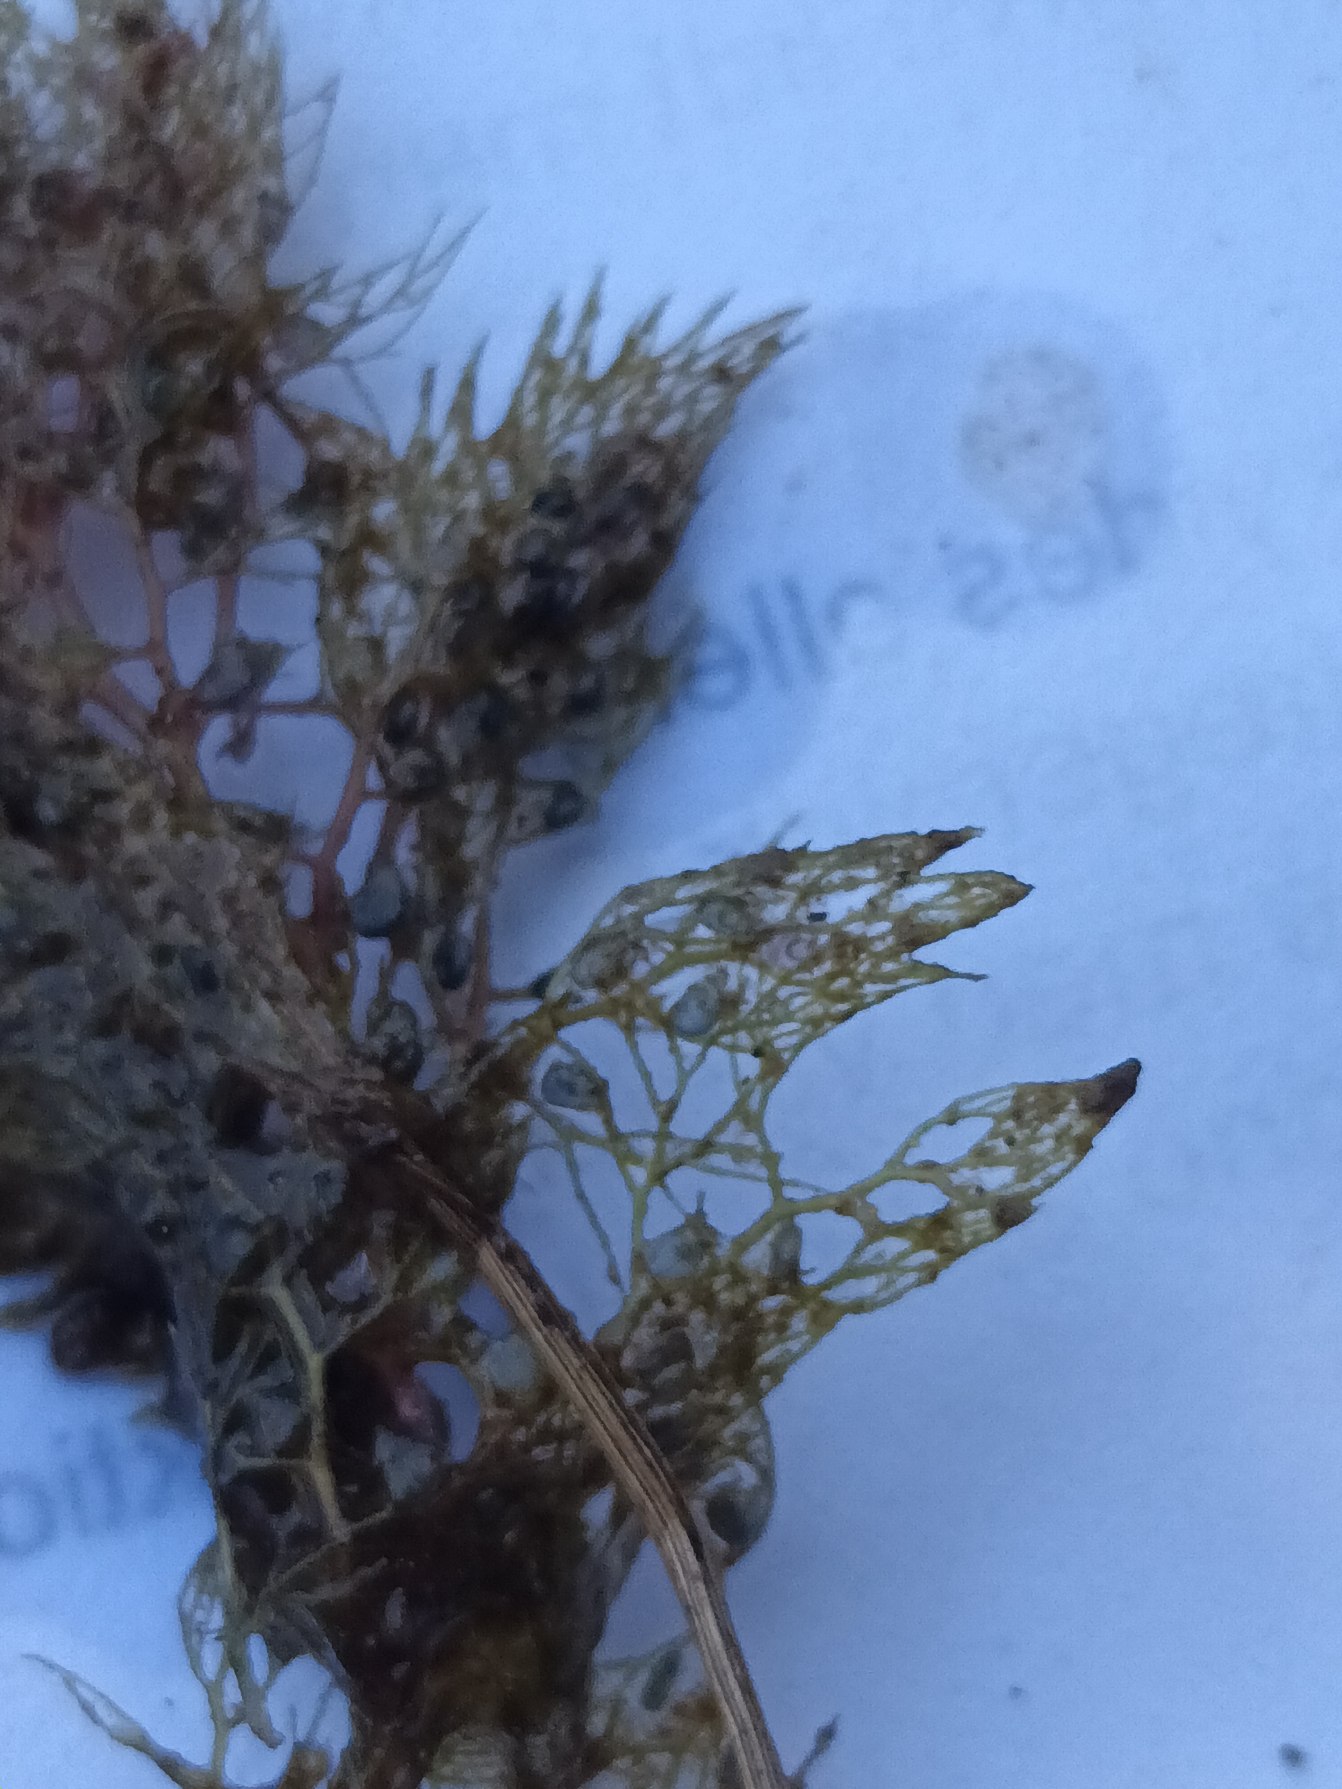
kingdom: Plantae
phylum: Tracheophyta
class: Magnoliopsida
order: Lamiales
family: Lentibulariaceae
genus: Utricularia
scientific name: Utricularia
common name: Blærerodslægten
